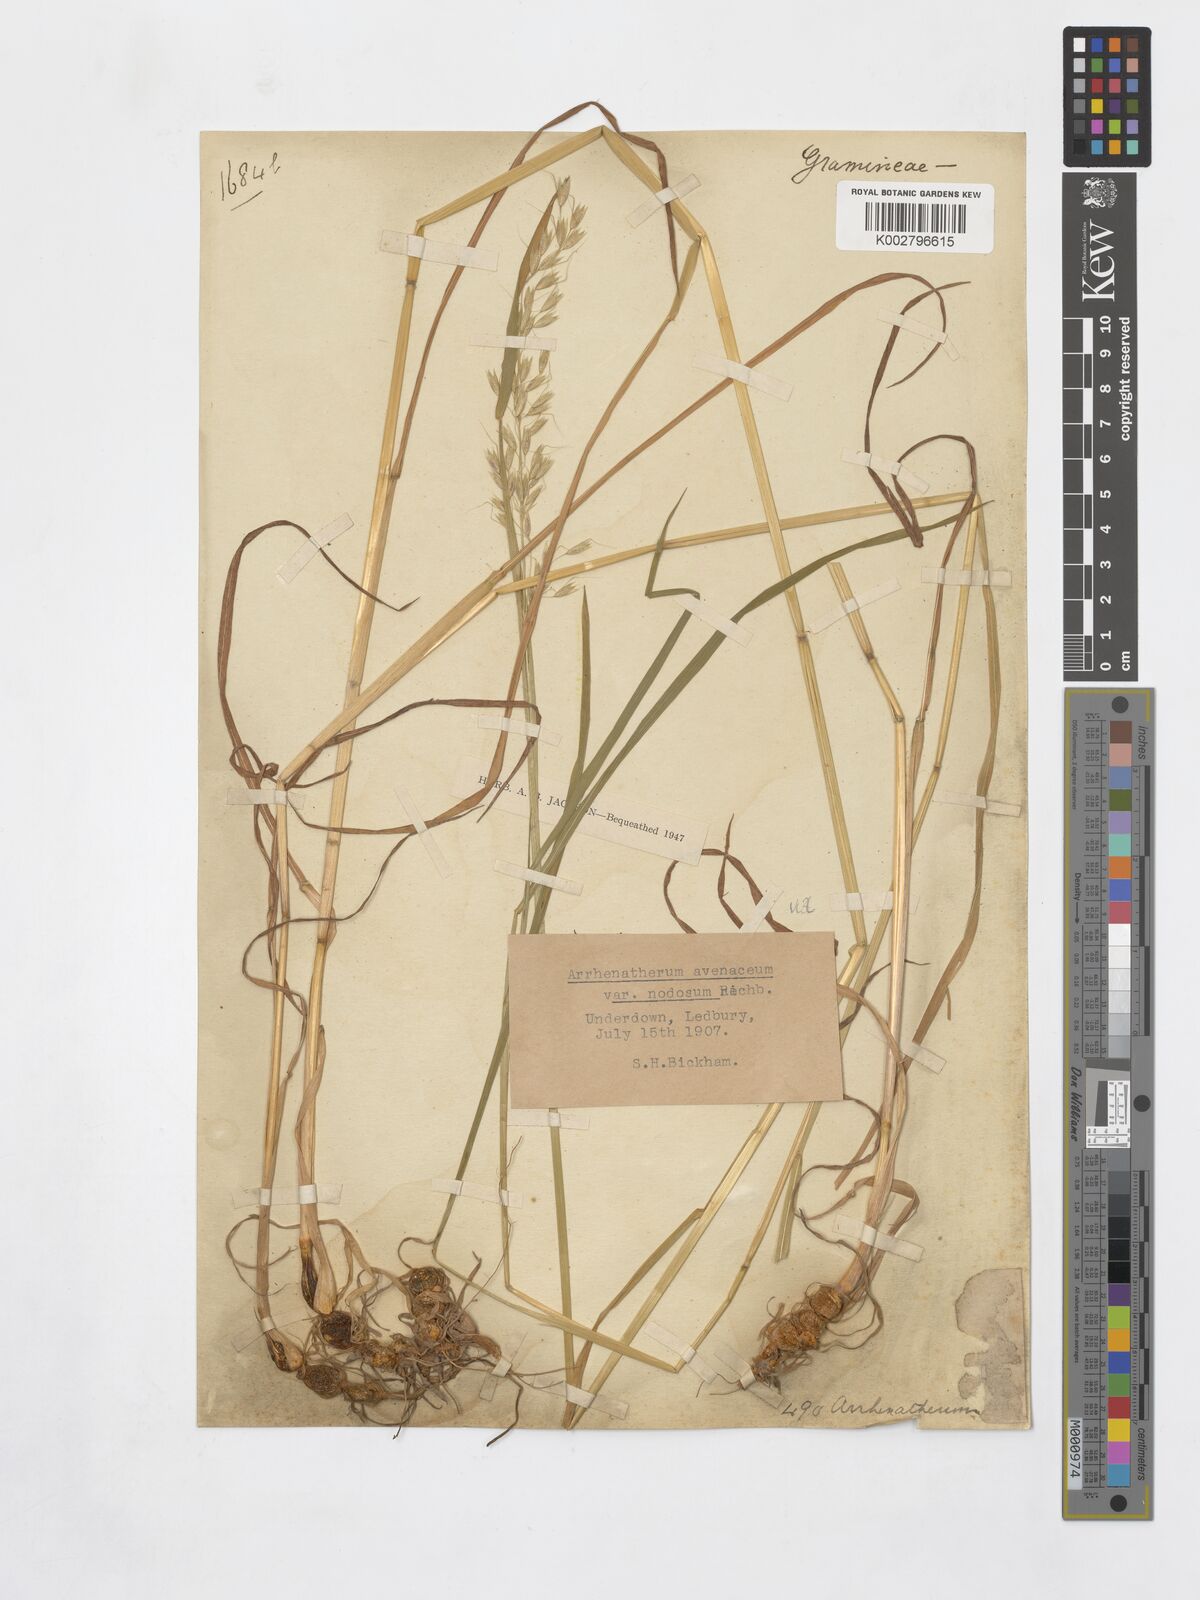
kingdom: Plantae
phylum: Tracheophyta
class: Liliopsida
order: Poales
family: Poaceae
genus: Arrhenatherum
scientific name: Arrhenatherum elatius
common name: Tall oatgrass
